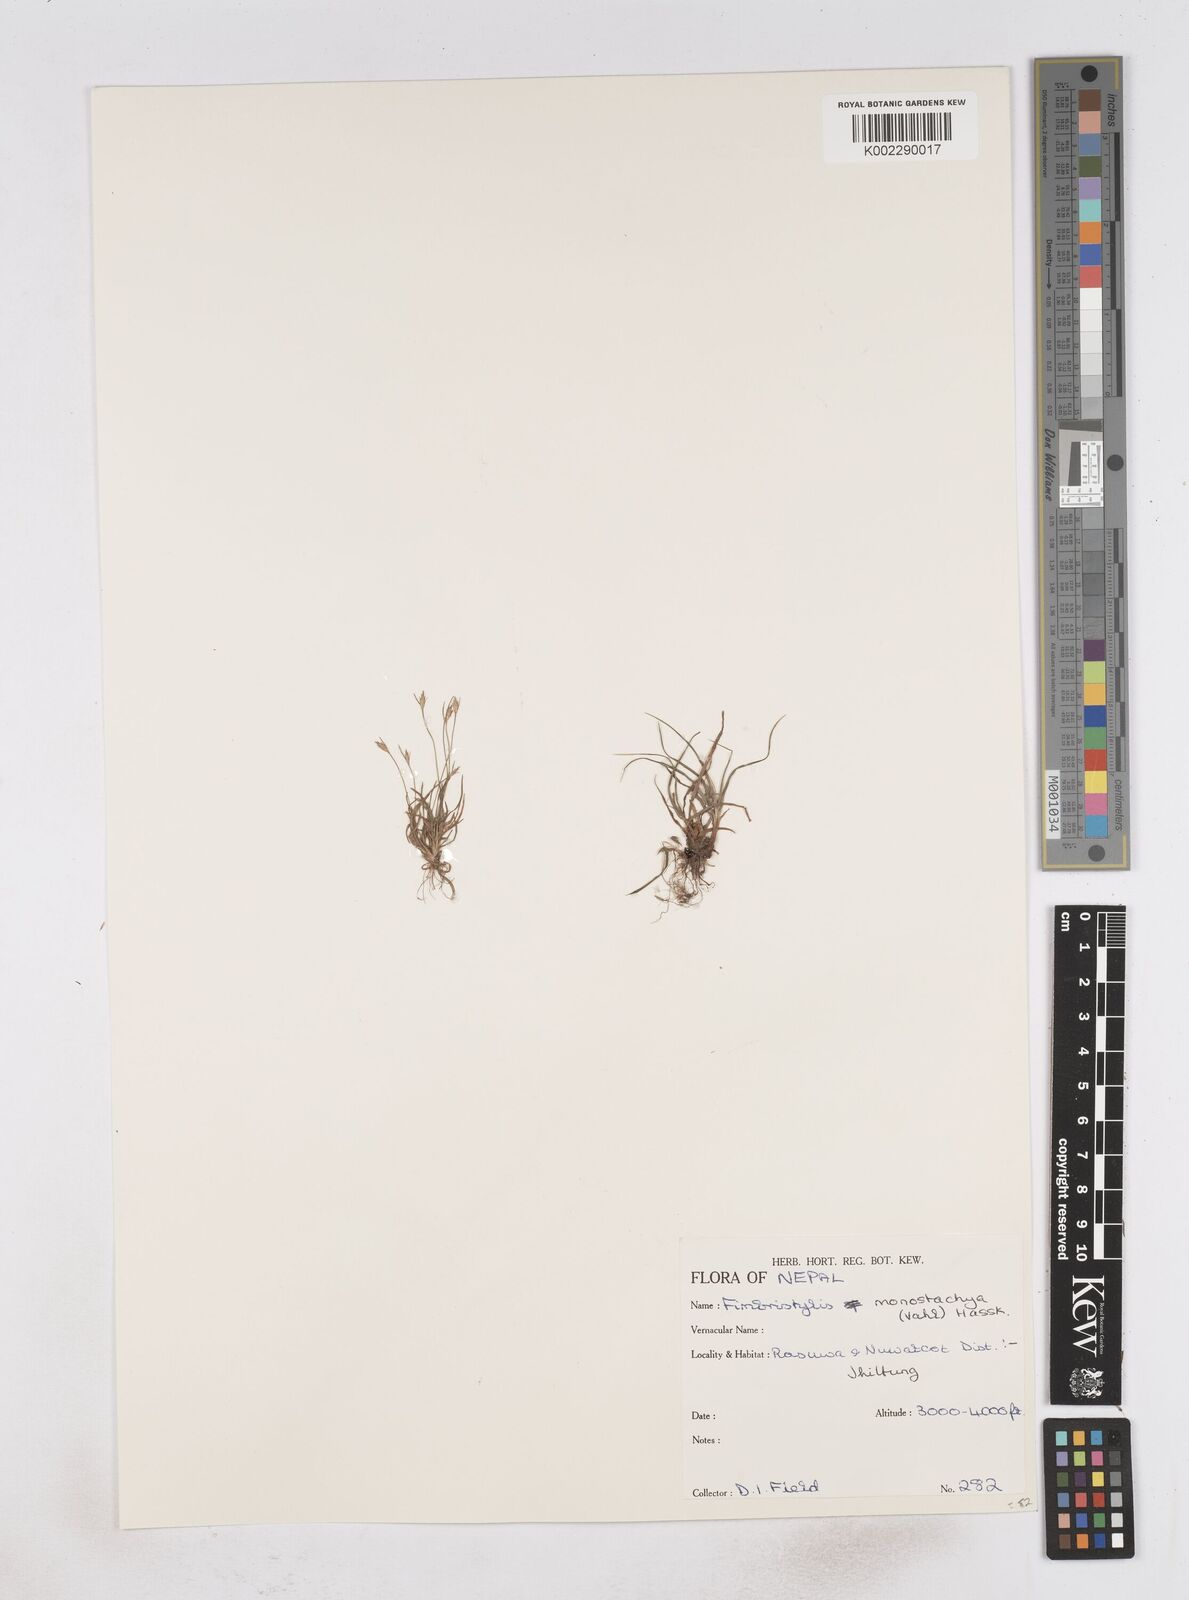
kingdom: Plantae
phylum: Tracheophyta
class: Liliopsida
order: Poales
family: Cyperaceae
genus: Abildgaardia
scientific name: Abildgaardia ovata
